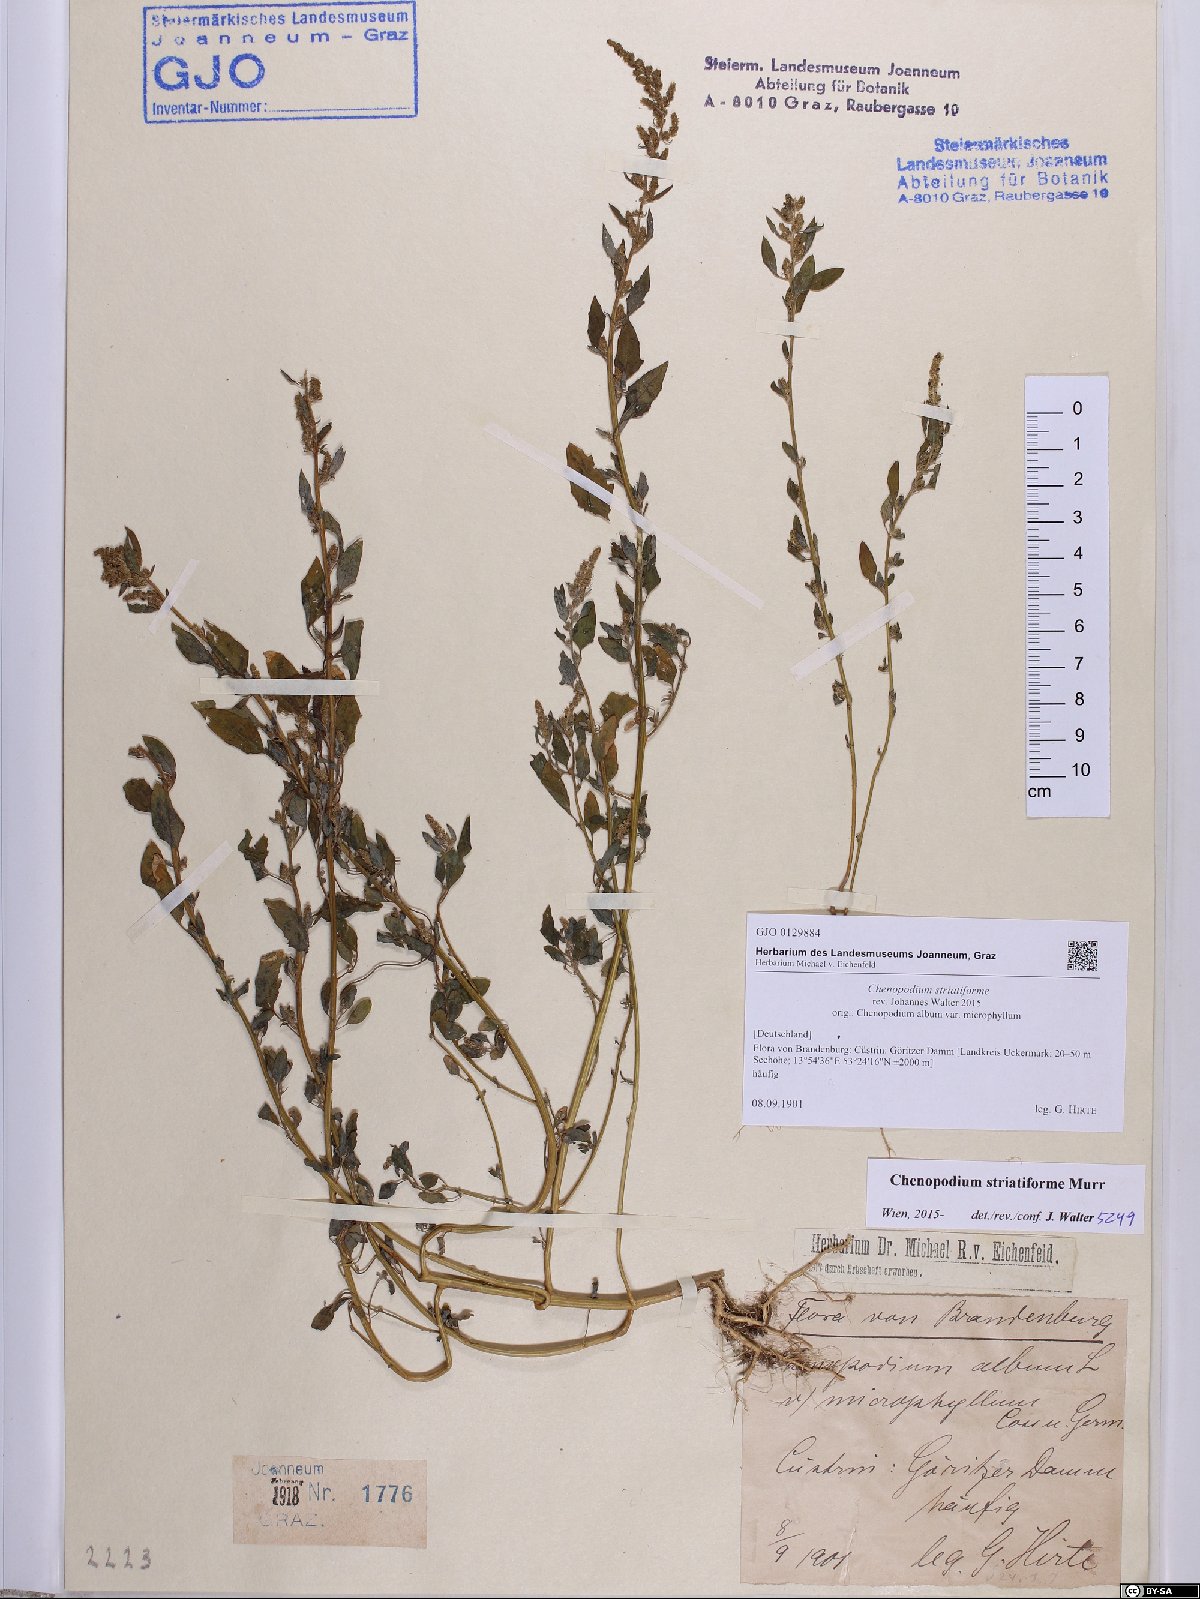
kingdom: Plantae
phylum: Tracheophyta
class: Magnoliopsida
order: Caryophyllales
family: Amaranthaceae
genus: Chenopodium
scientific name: Chenopodium striatiforme
